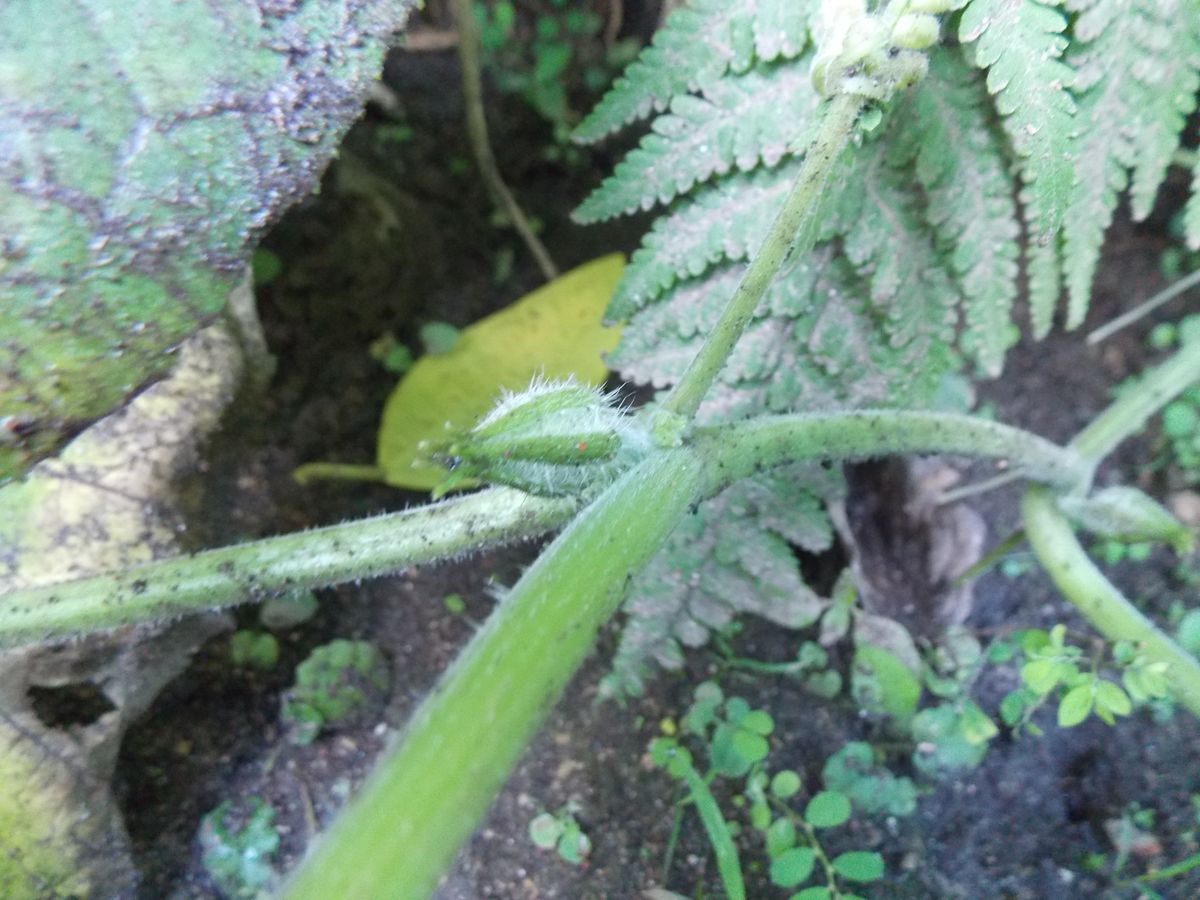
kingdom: Plantae
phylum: Tracheophyta
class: Magnoliopsida
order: Cucurbitales
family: Cucurbitaceae
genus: Cucurbita
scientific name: Cucurbita argyrosperma
